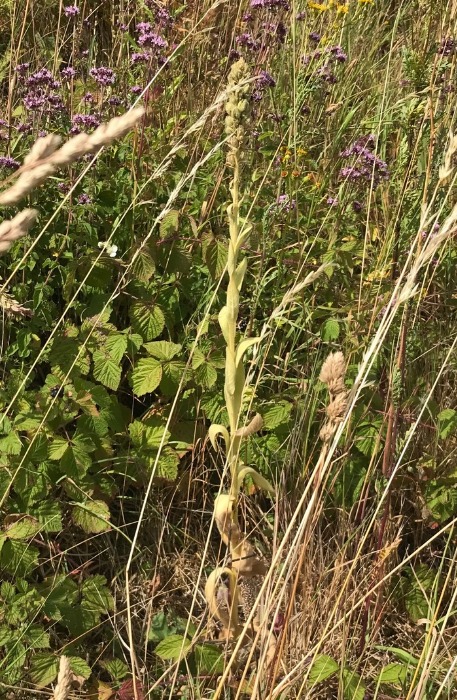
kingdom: Plantae
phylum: Tracheophyta
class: Magnoliopsida
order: Lamiales
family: Scrophulariaceae
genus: Verbascum
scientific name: Verbascum thapsus
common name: Filtbladet kongelys
